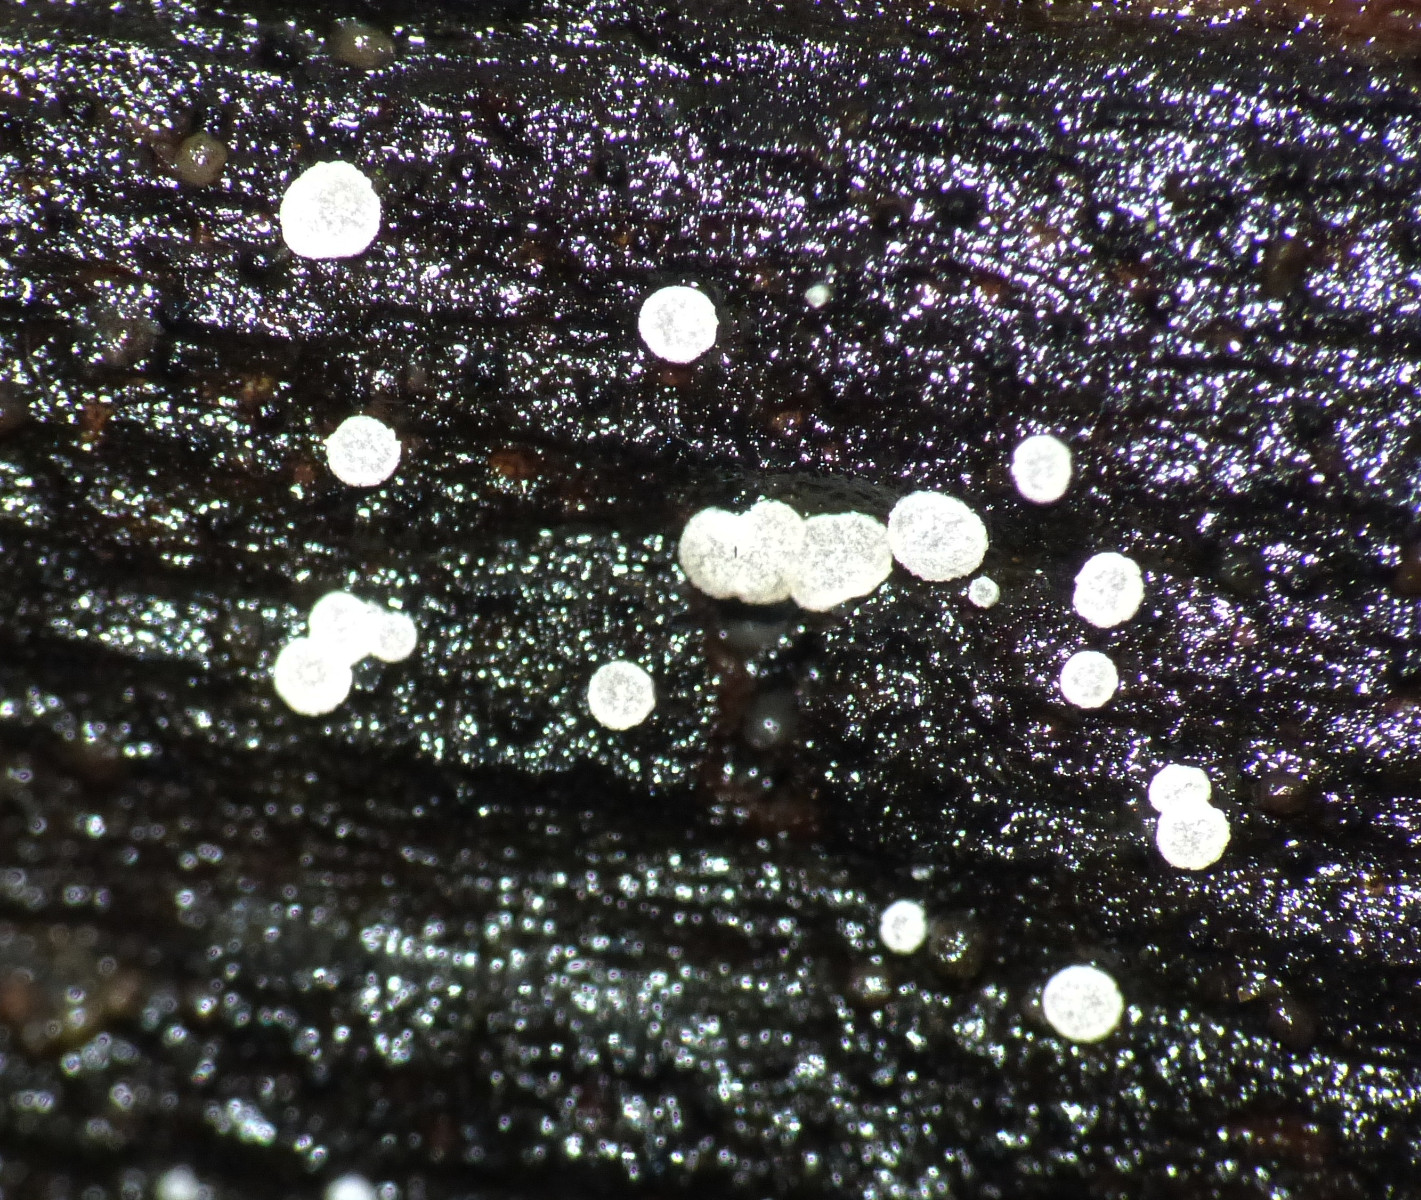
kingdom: Fungi
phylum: Ascomycota
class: Leotiomycetes
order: Helotiales
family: Hyaloscyphaceae
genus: Polydesmia
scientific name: Polydesmia pruinosa
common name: dunskive
